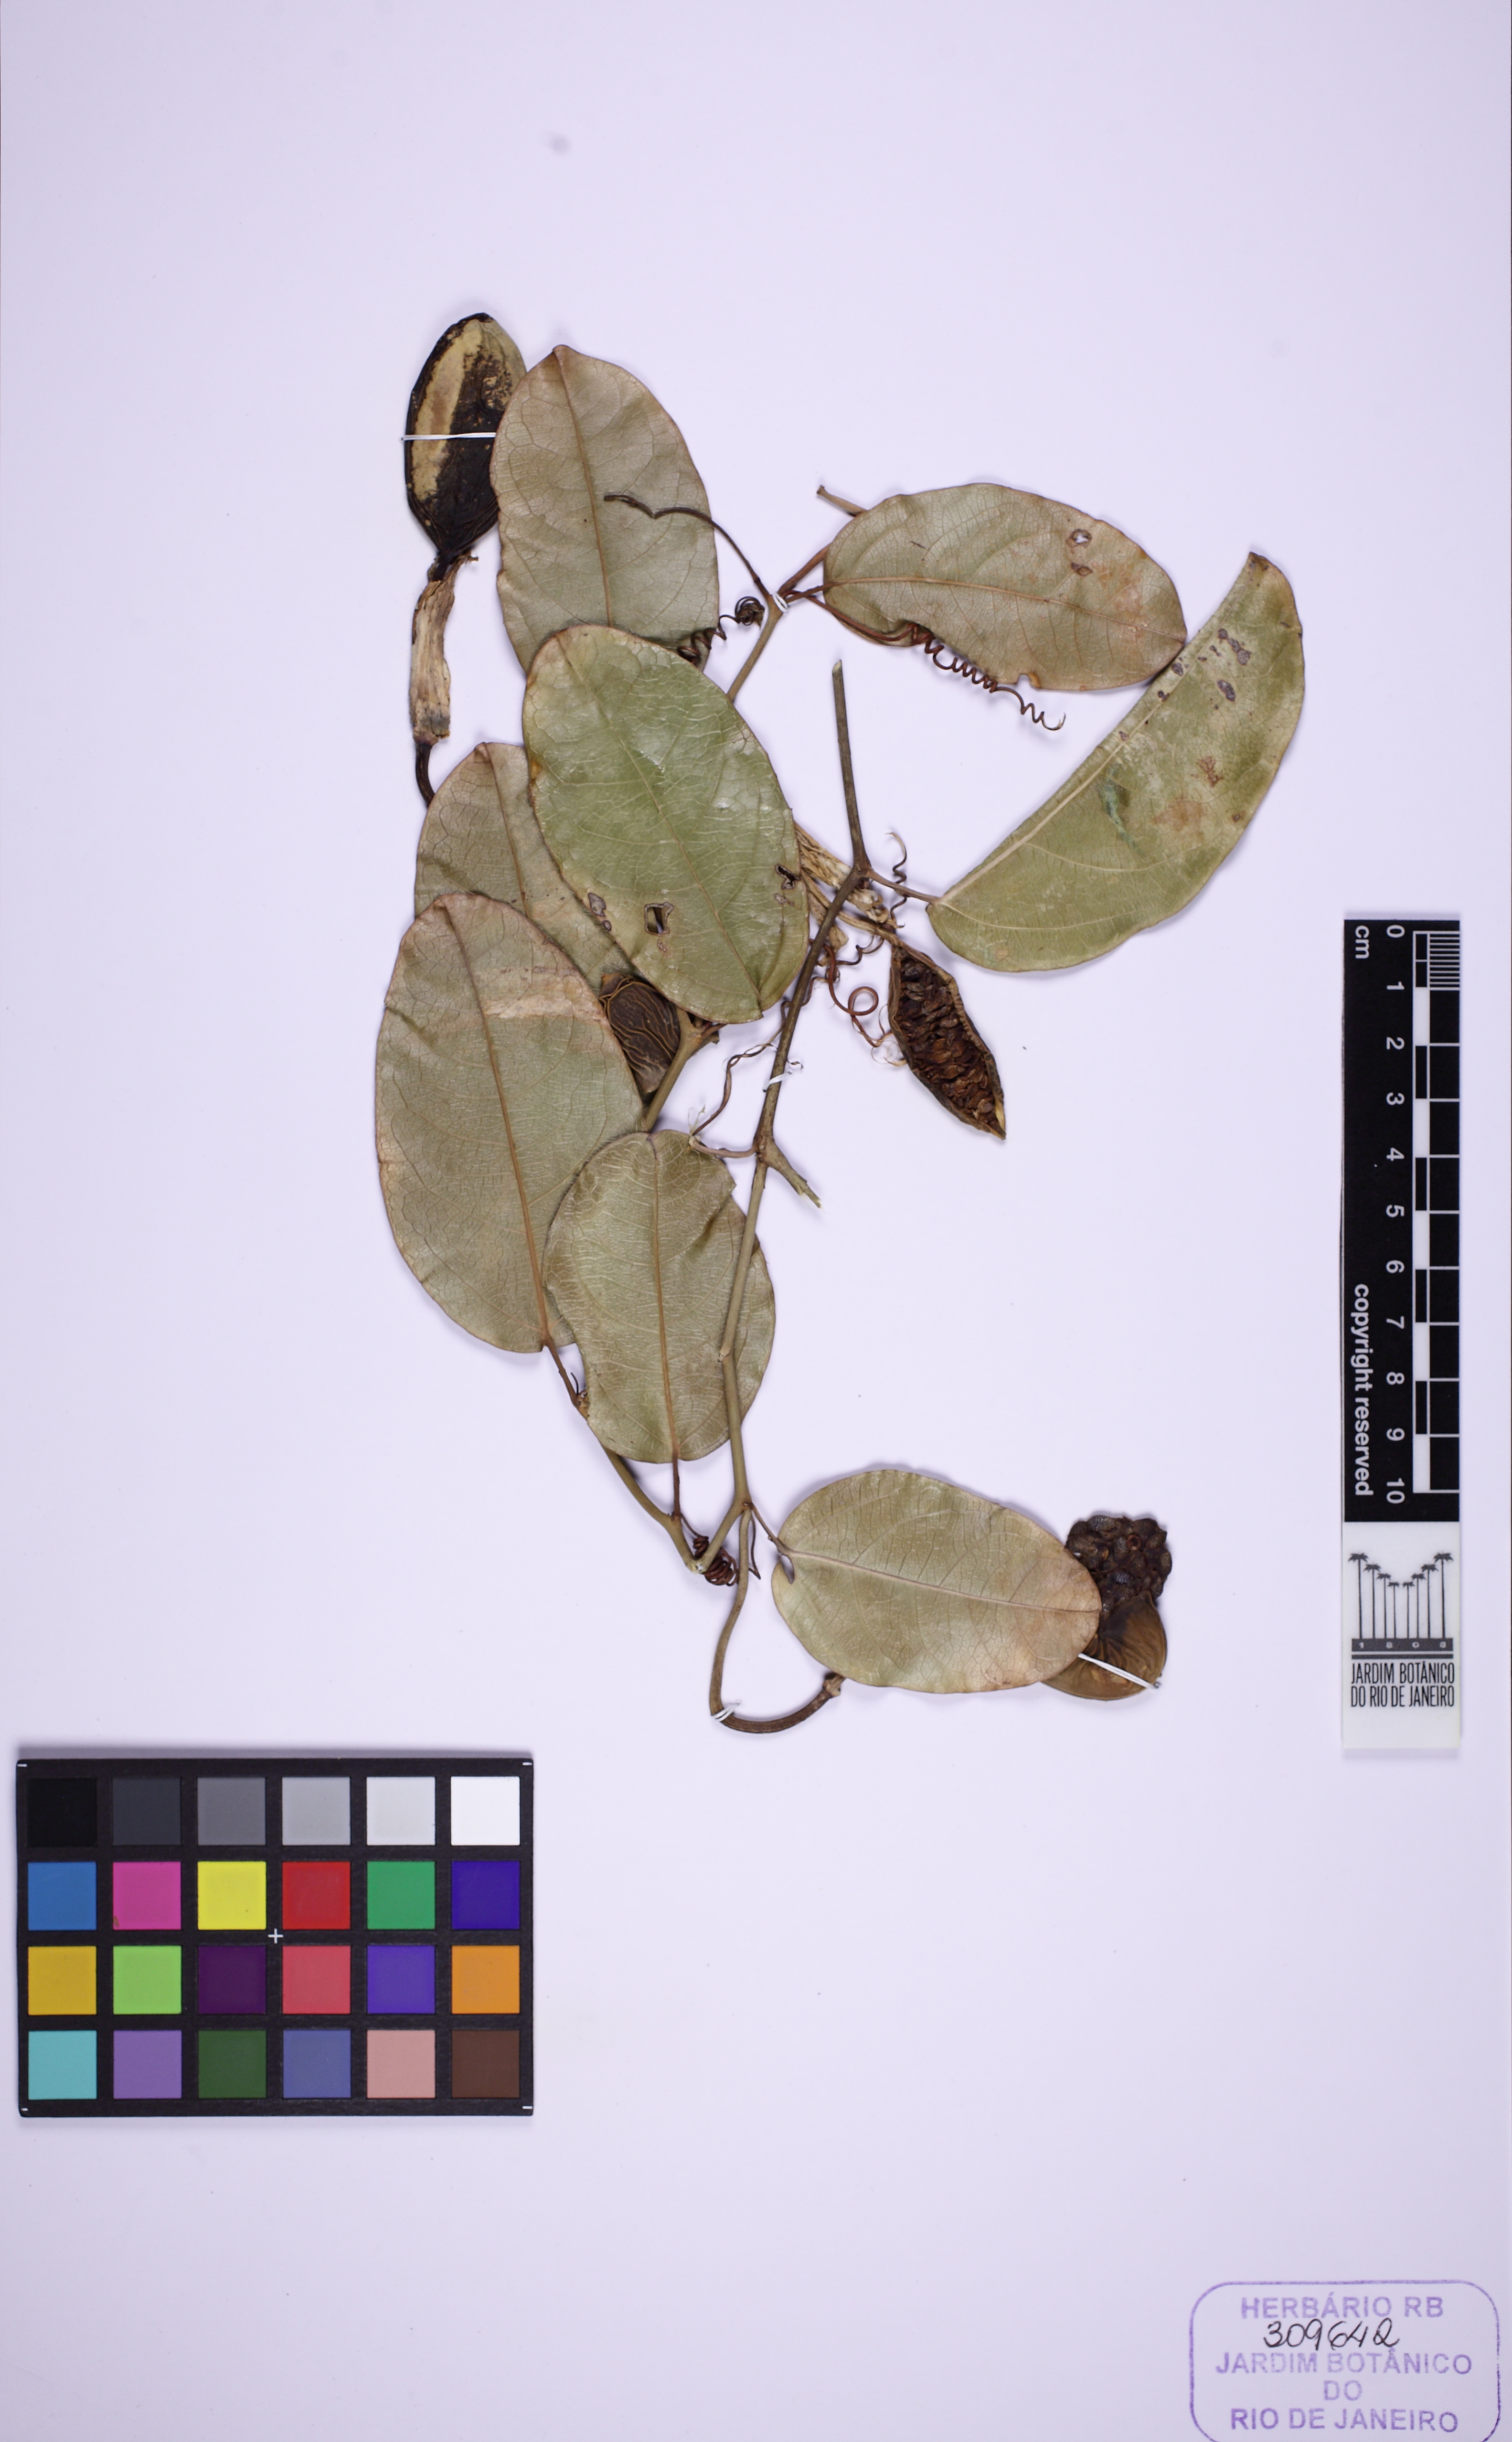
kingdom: Plantae
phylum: Tracheophyta
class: Magnoliopsida
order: Malpighiales
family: Passifloraceae
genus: Passiflora
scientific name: Passiflora mucronata
